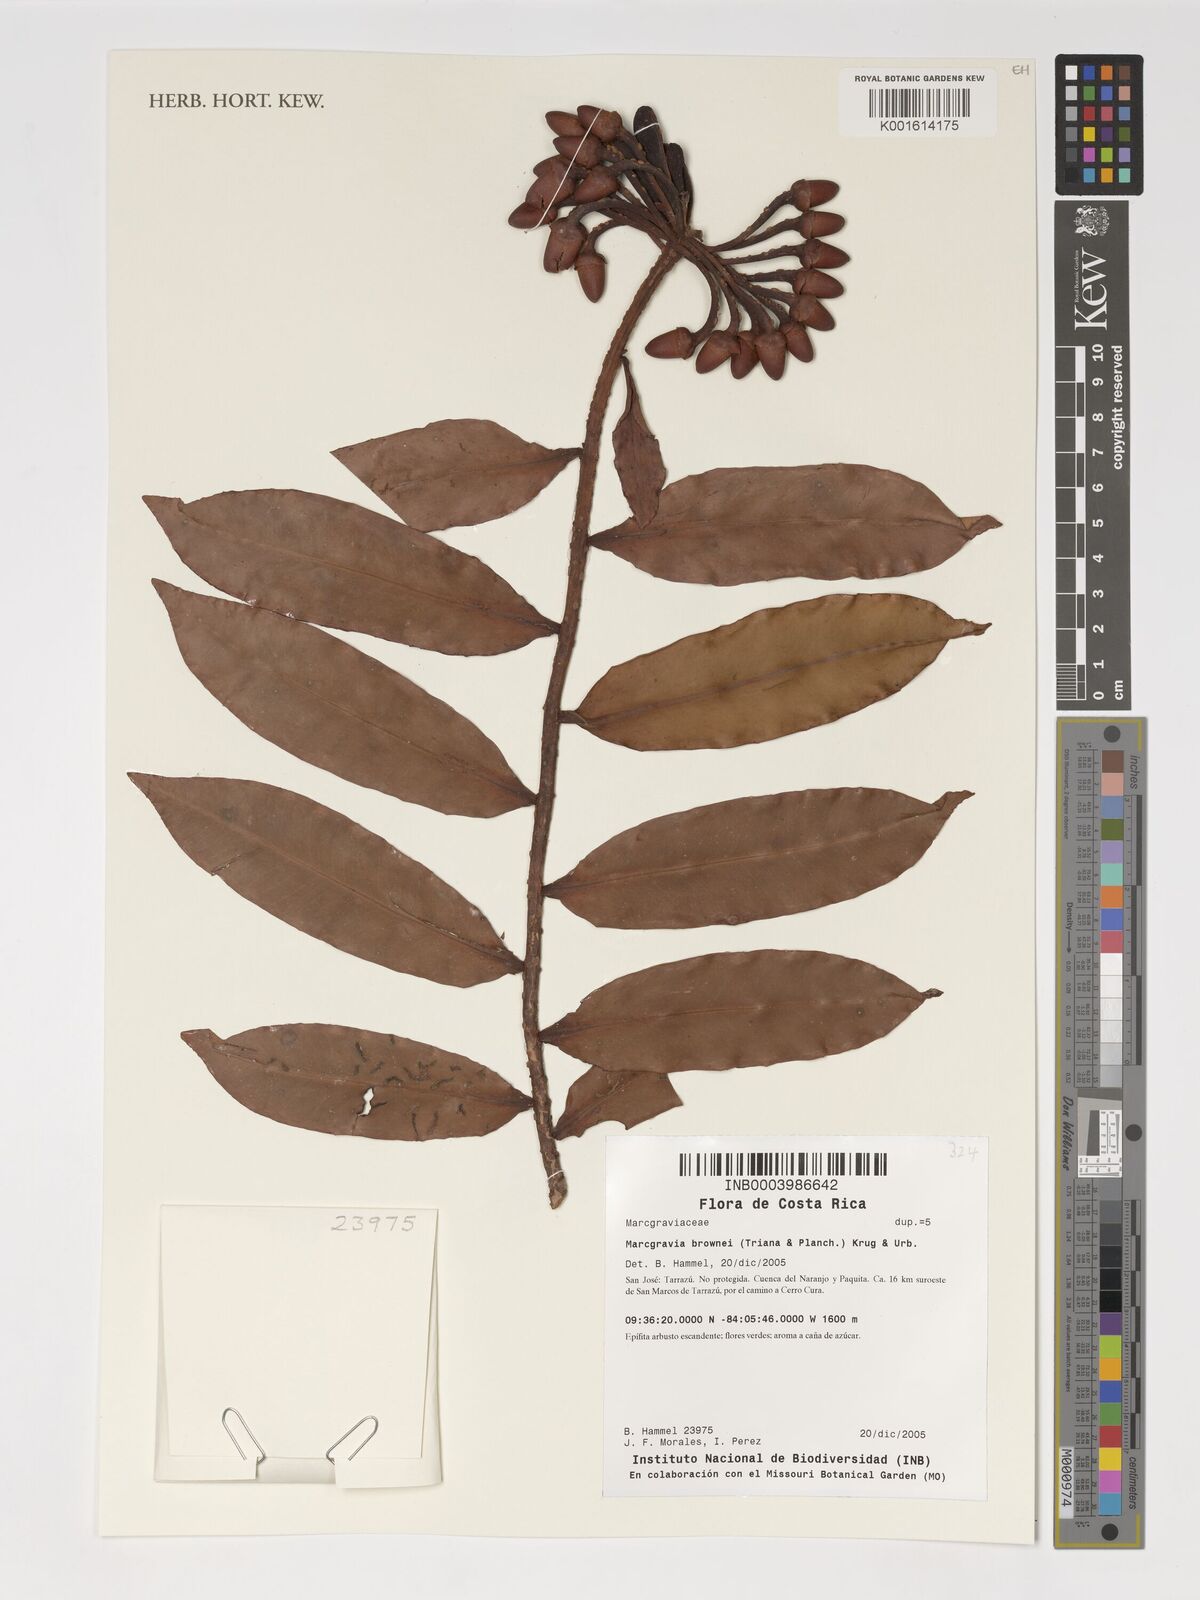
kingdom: Plantae
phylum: Tracheophyta
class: Magnoliopsida
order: Ericales
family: Marcgraviaceae
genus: Marcgravia
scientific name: Marcgravia brownei
